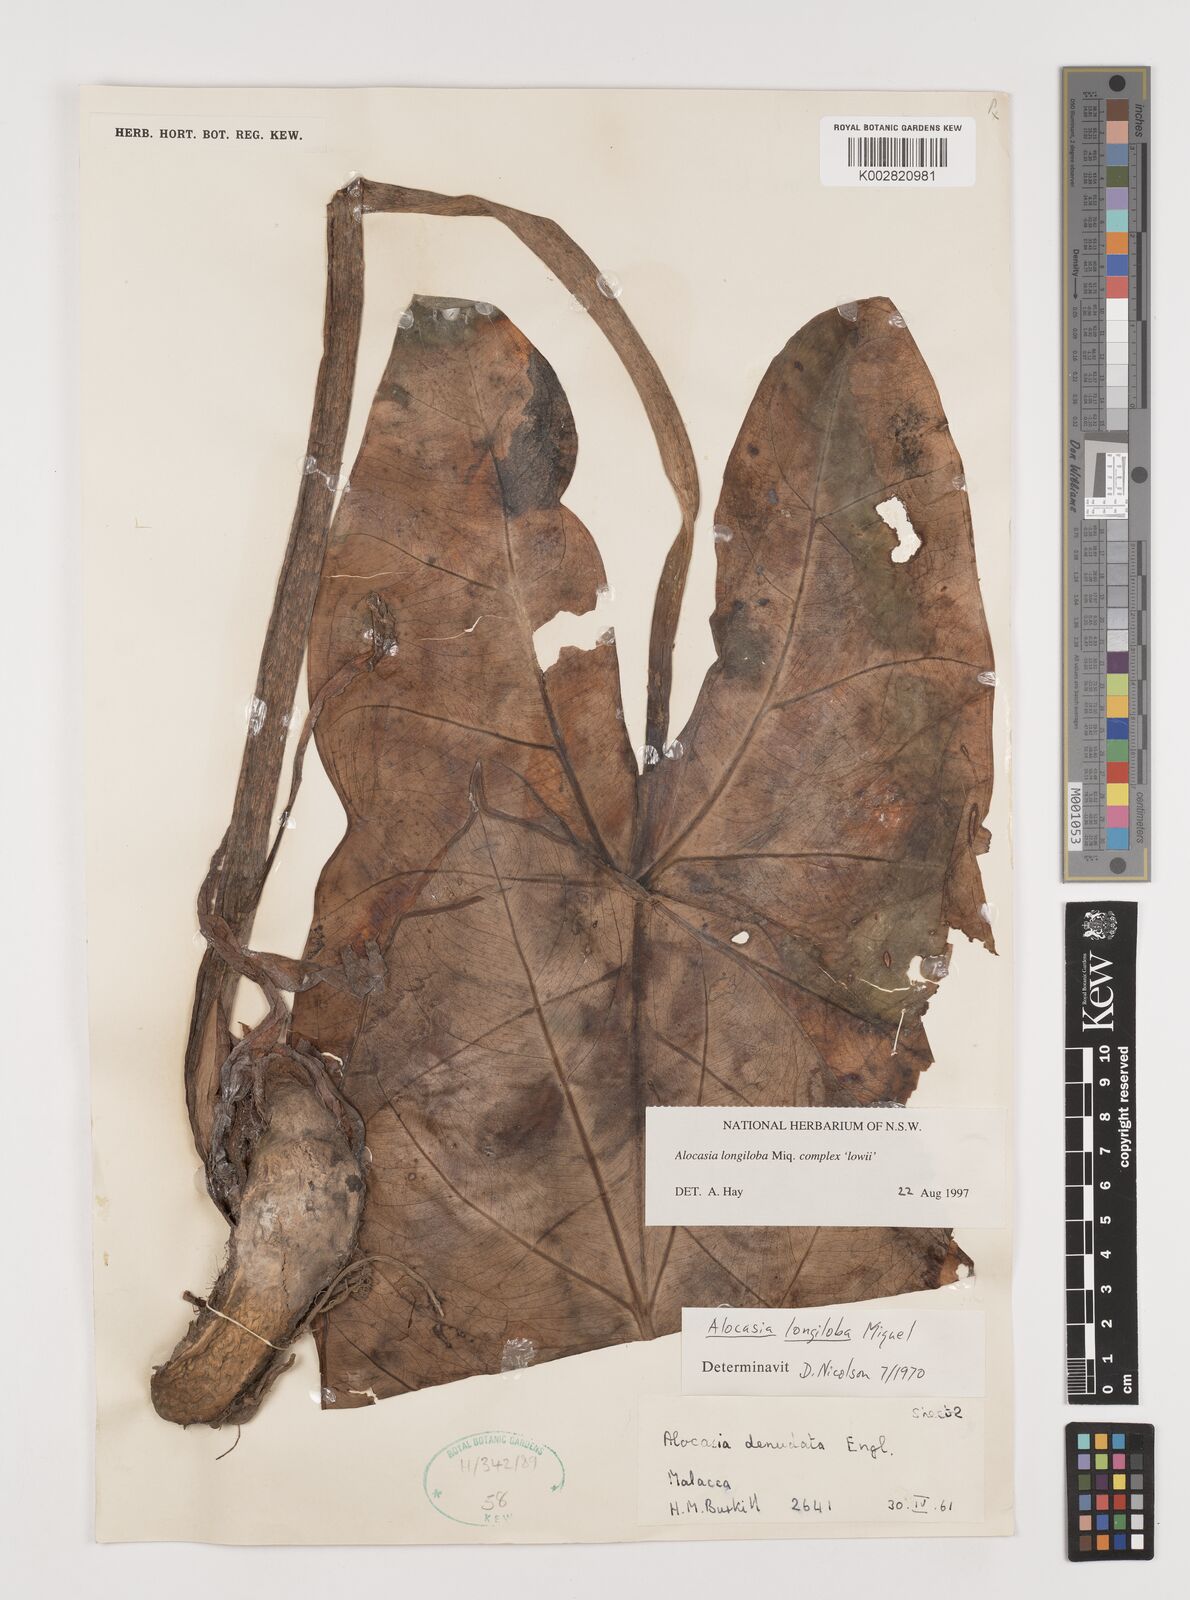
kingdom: Plantae
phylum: Tracheophyta
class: Liliopsida
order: Alismatales
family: Araceae
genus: Alocasia
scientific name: Alocasia longiloba
